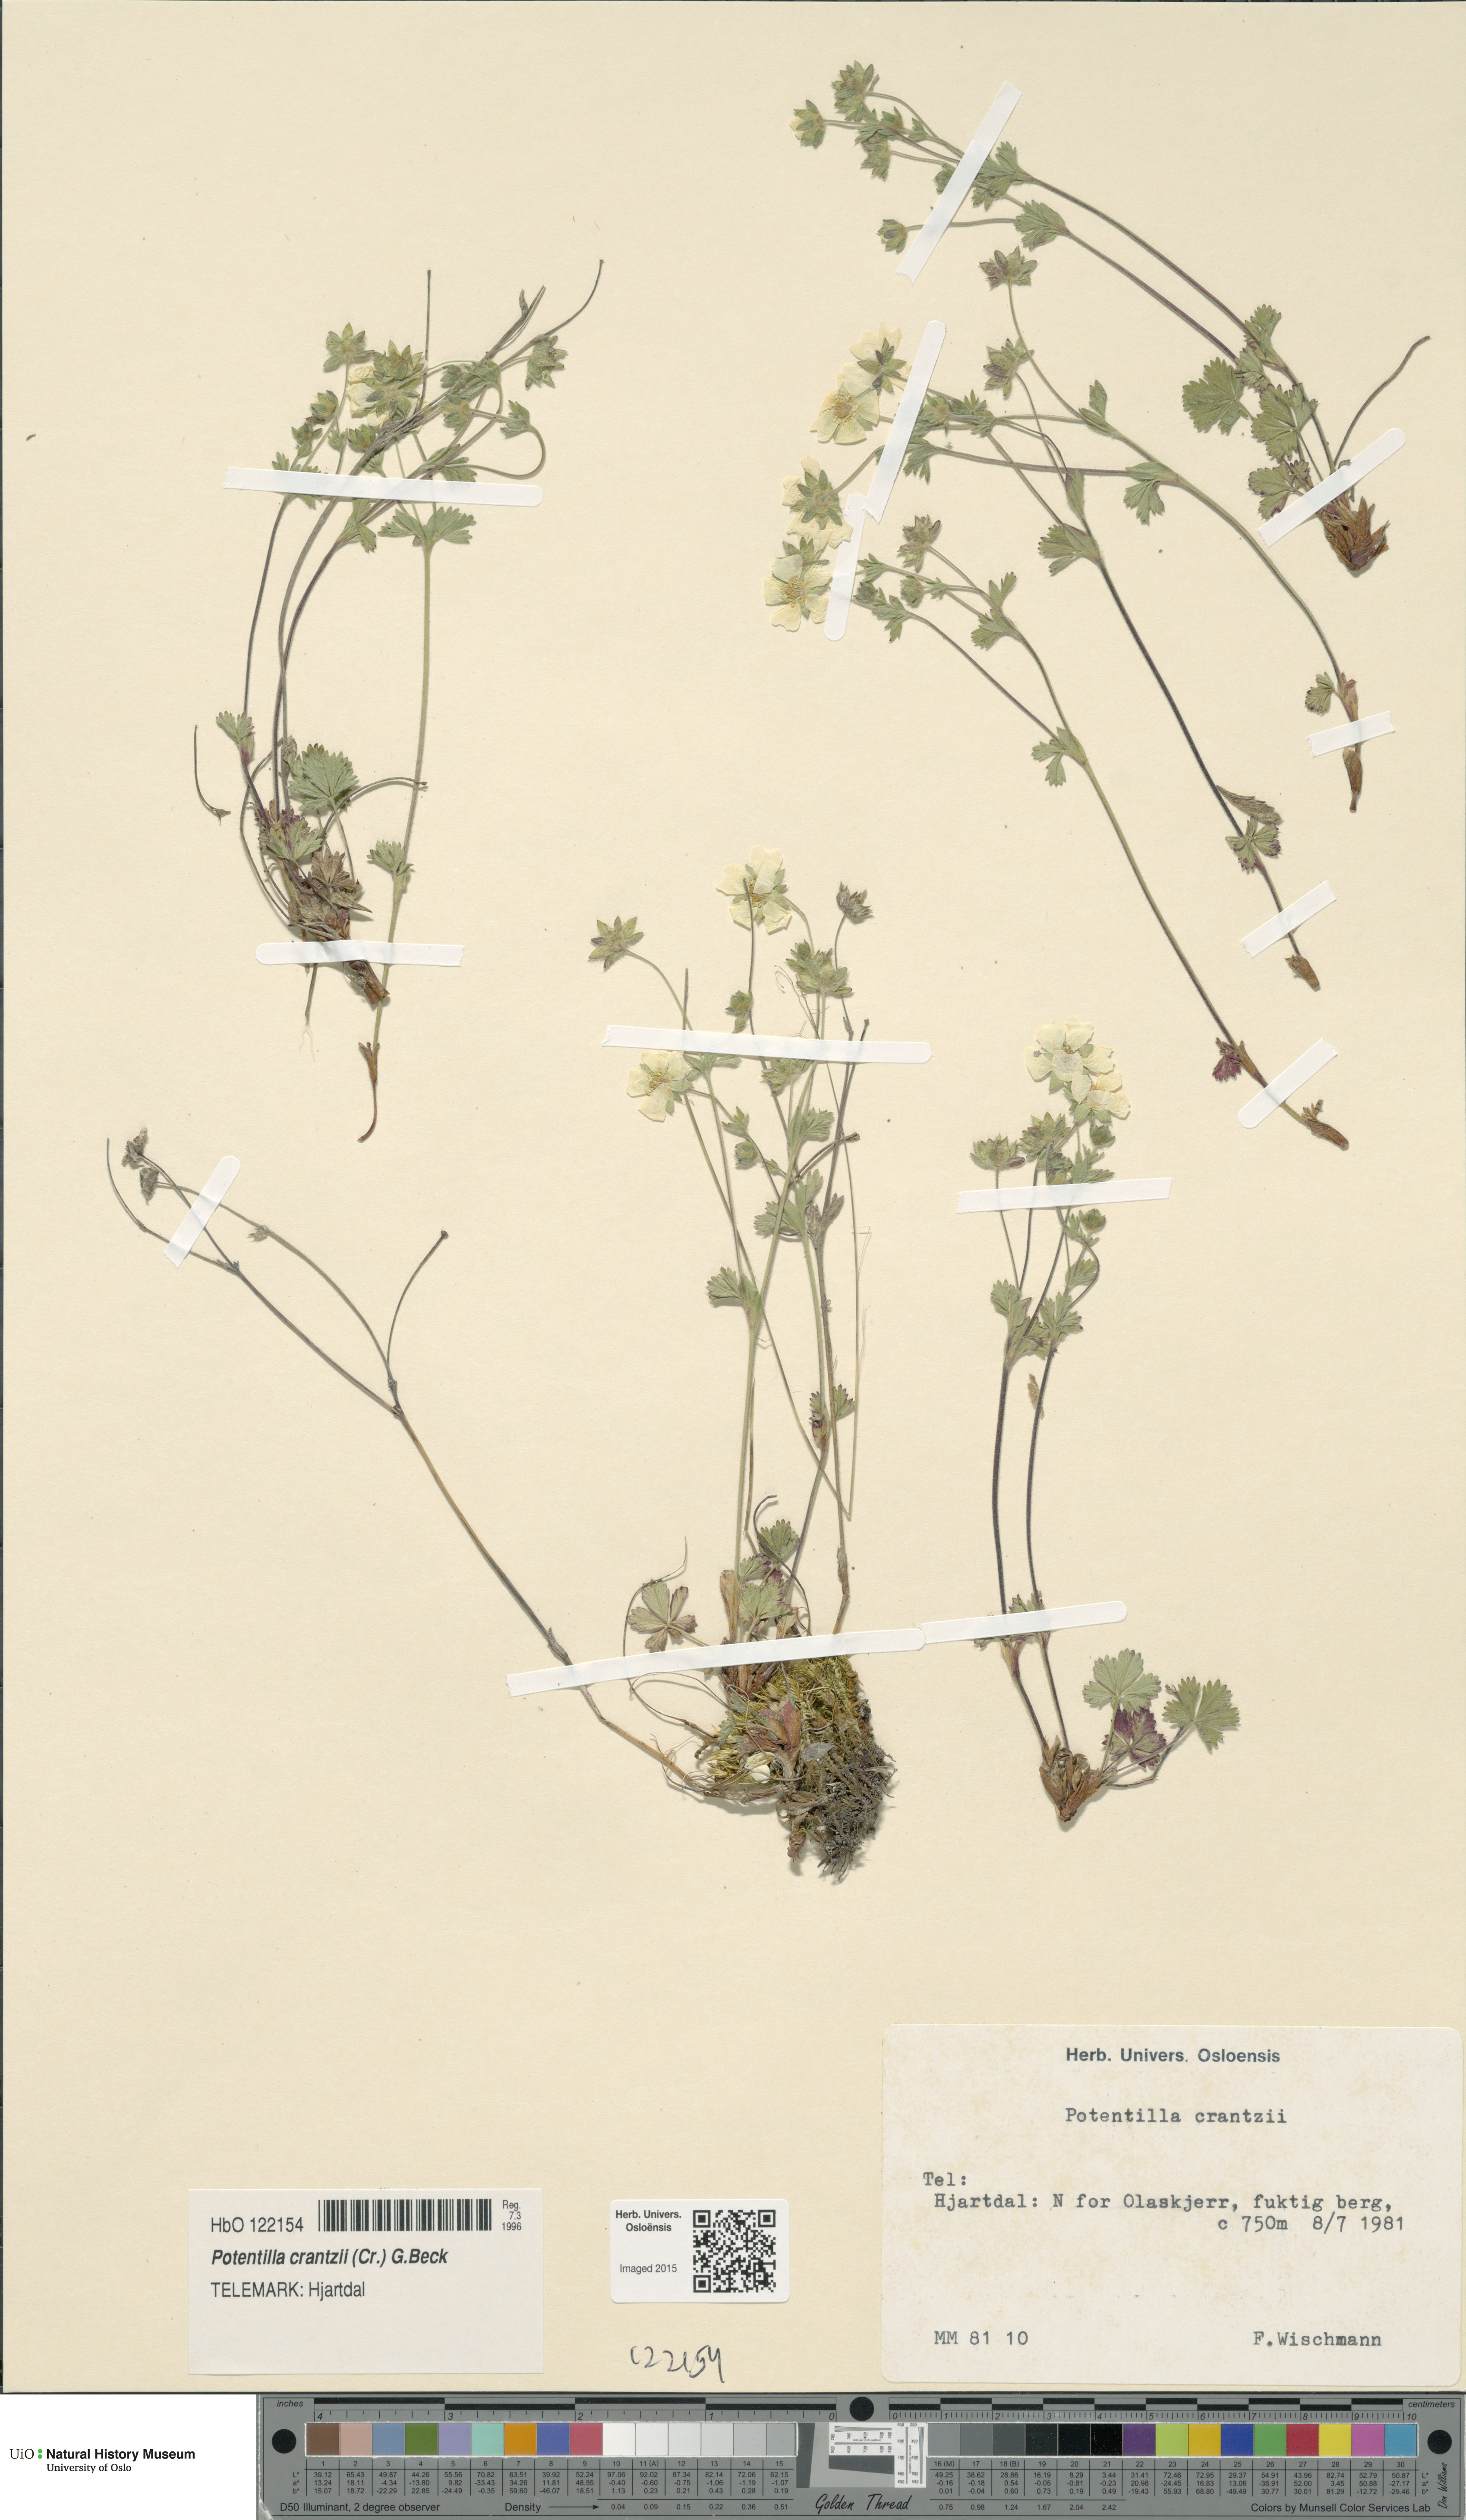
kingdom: Plantae
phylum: Tracheophyta
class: Magnoliopsida
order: Rosales
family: Rosaceae
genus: Potentilla
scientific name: Potentilla crantzii
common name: Alpine cinquefoil
